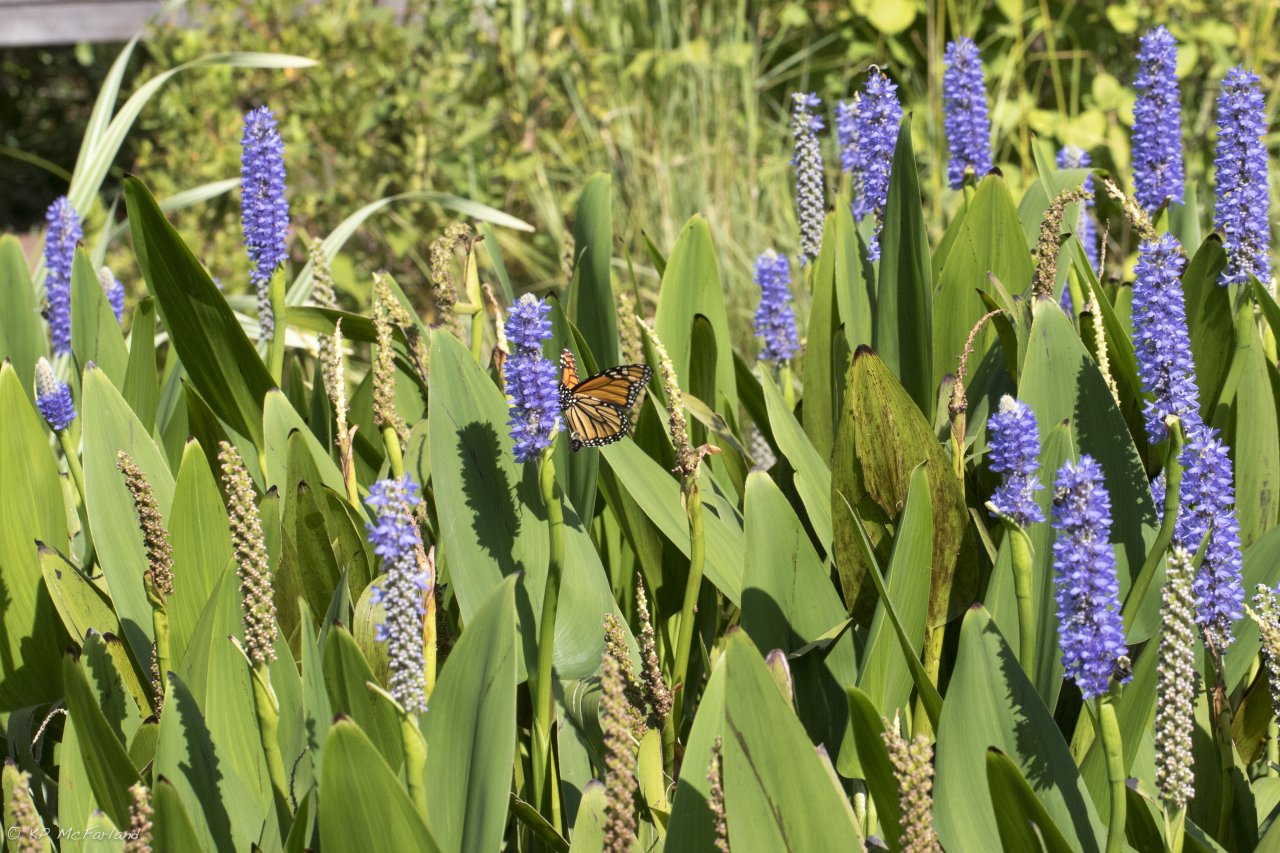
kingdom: Animalia
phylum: Arthropoda
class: Insecta
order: Lepidoptera
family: Nymphalidae
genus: Danaus
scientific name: Danaus plexippus
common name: Monarch
